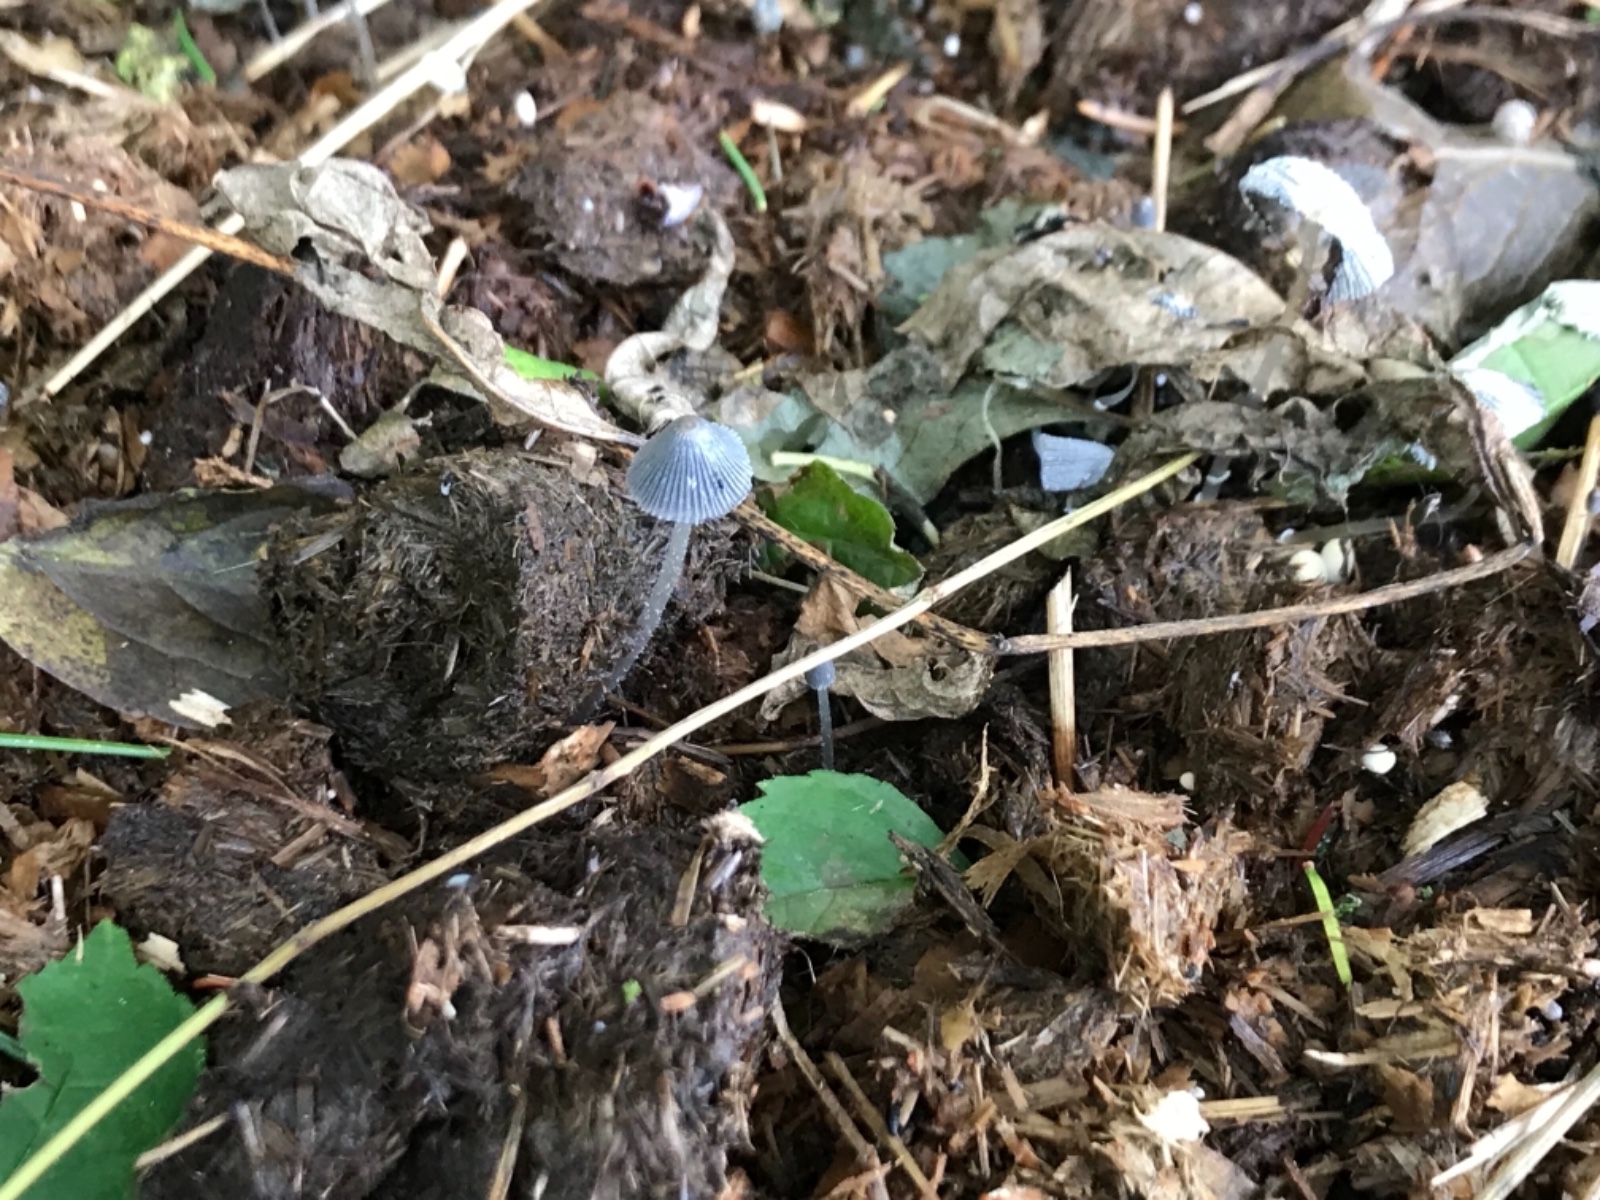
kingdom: Fungi
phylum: Basidiomycota
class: Agaricomycetes
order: Agaricales
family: Psathyrellaceae
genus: Coprinopsis
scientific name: Coprinopsis
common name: blækhat
